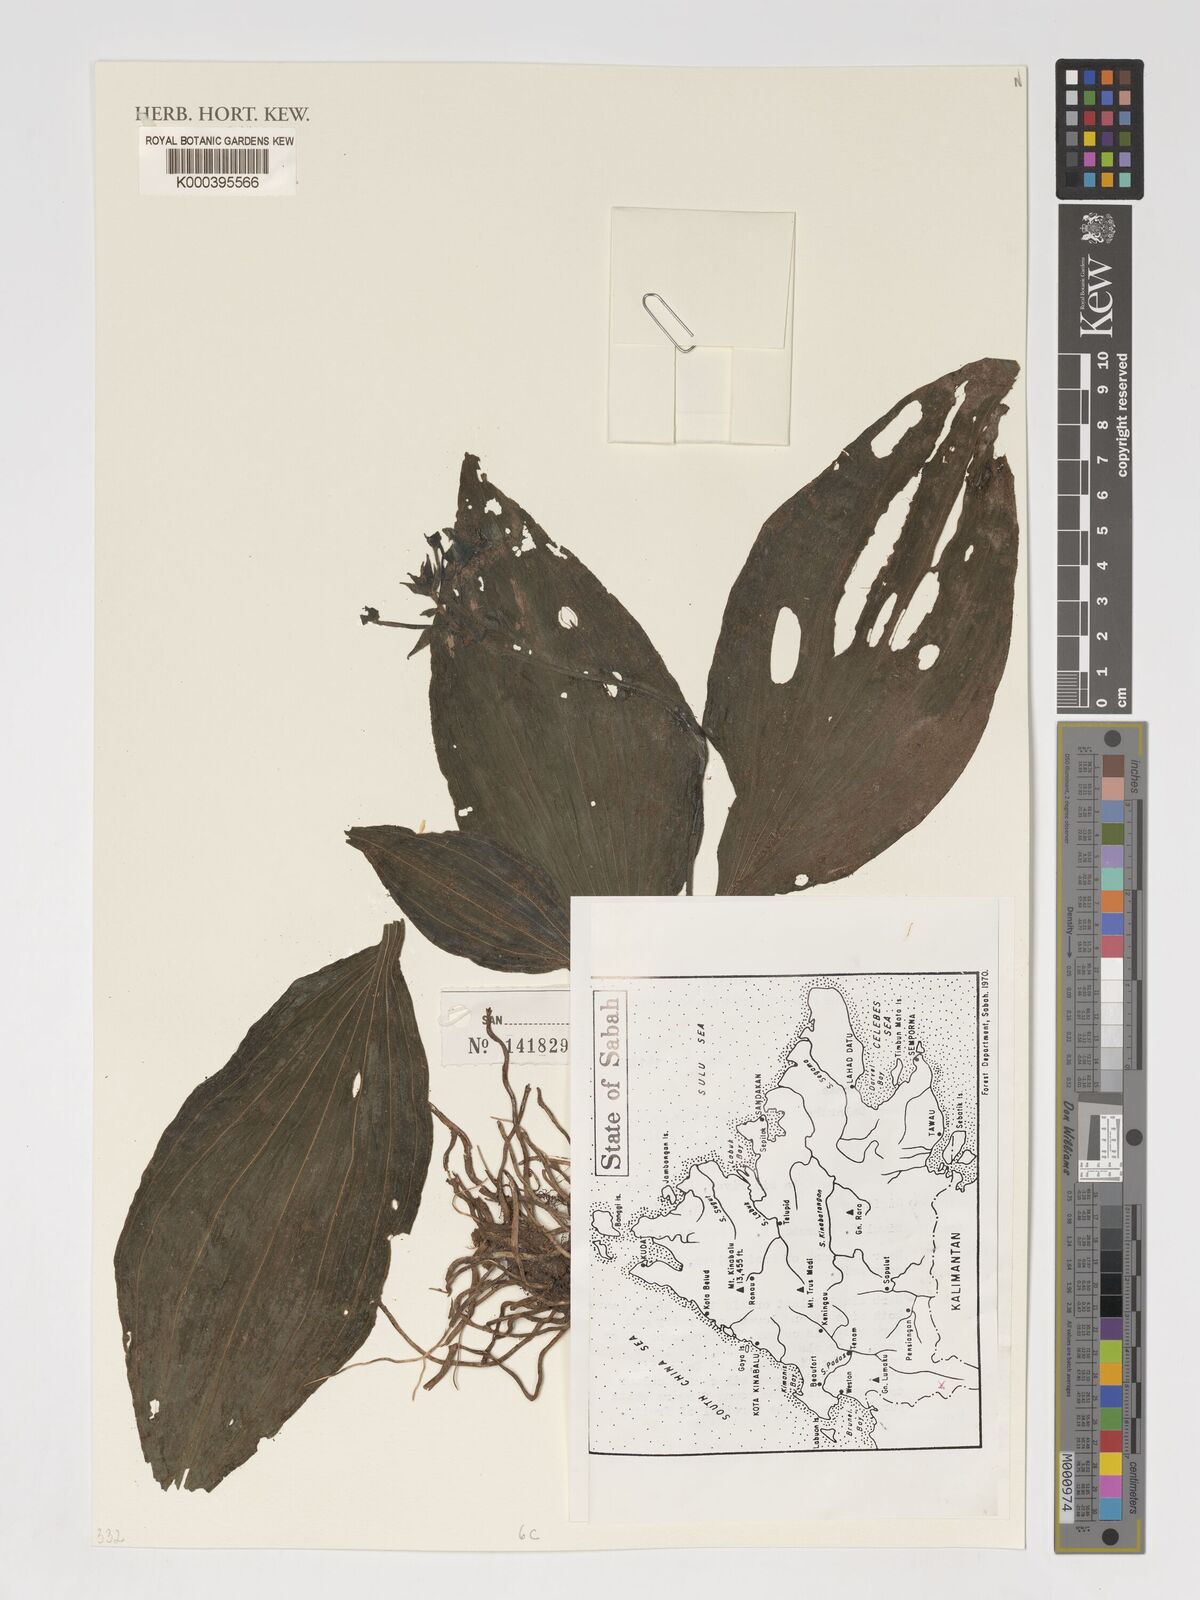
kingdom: Plantae
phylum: Tracheophyta
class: Liliopsida
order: Asparagales
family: Orchidaceae
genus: Calanthe
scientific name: Calanthe sylvatica
